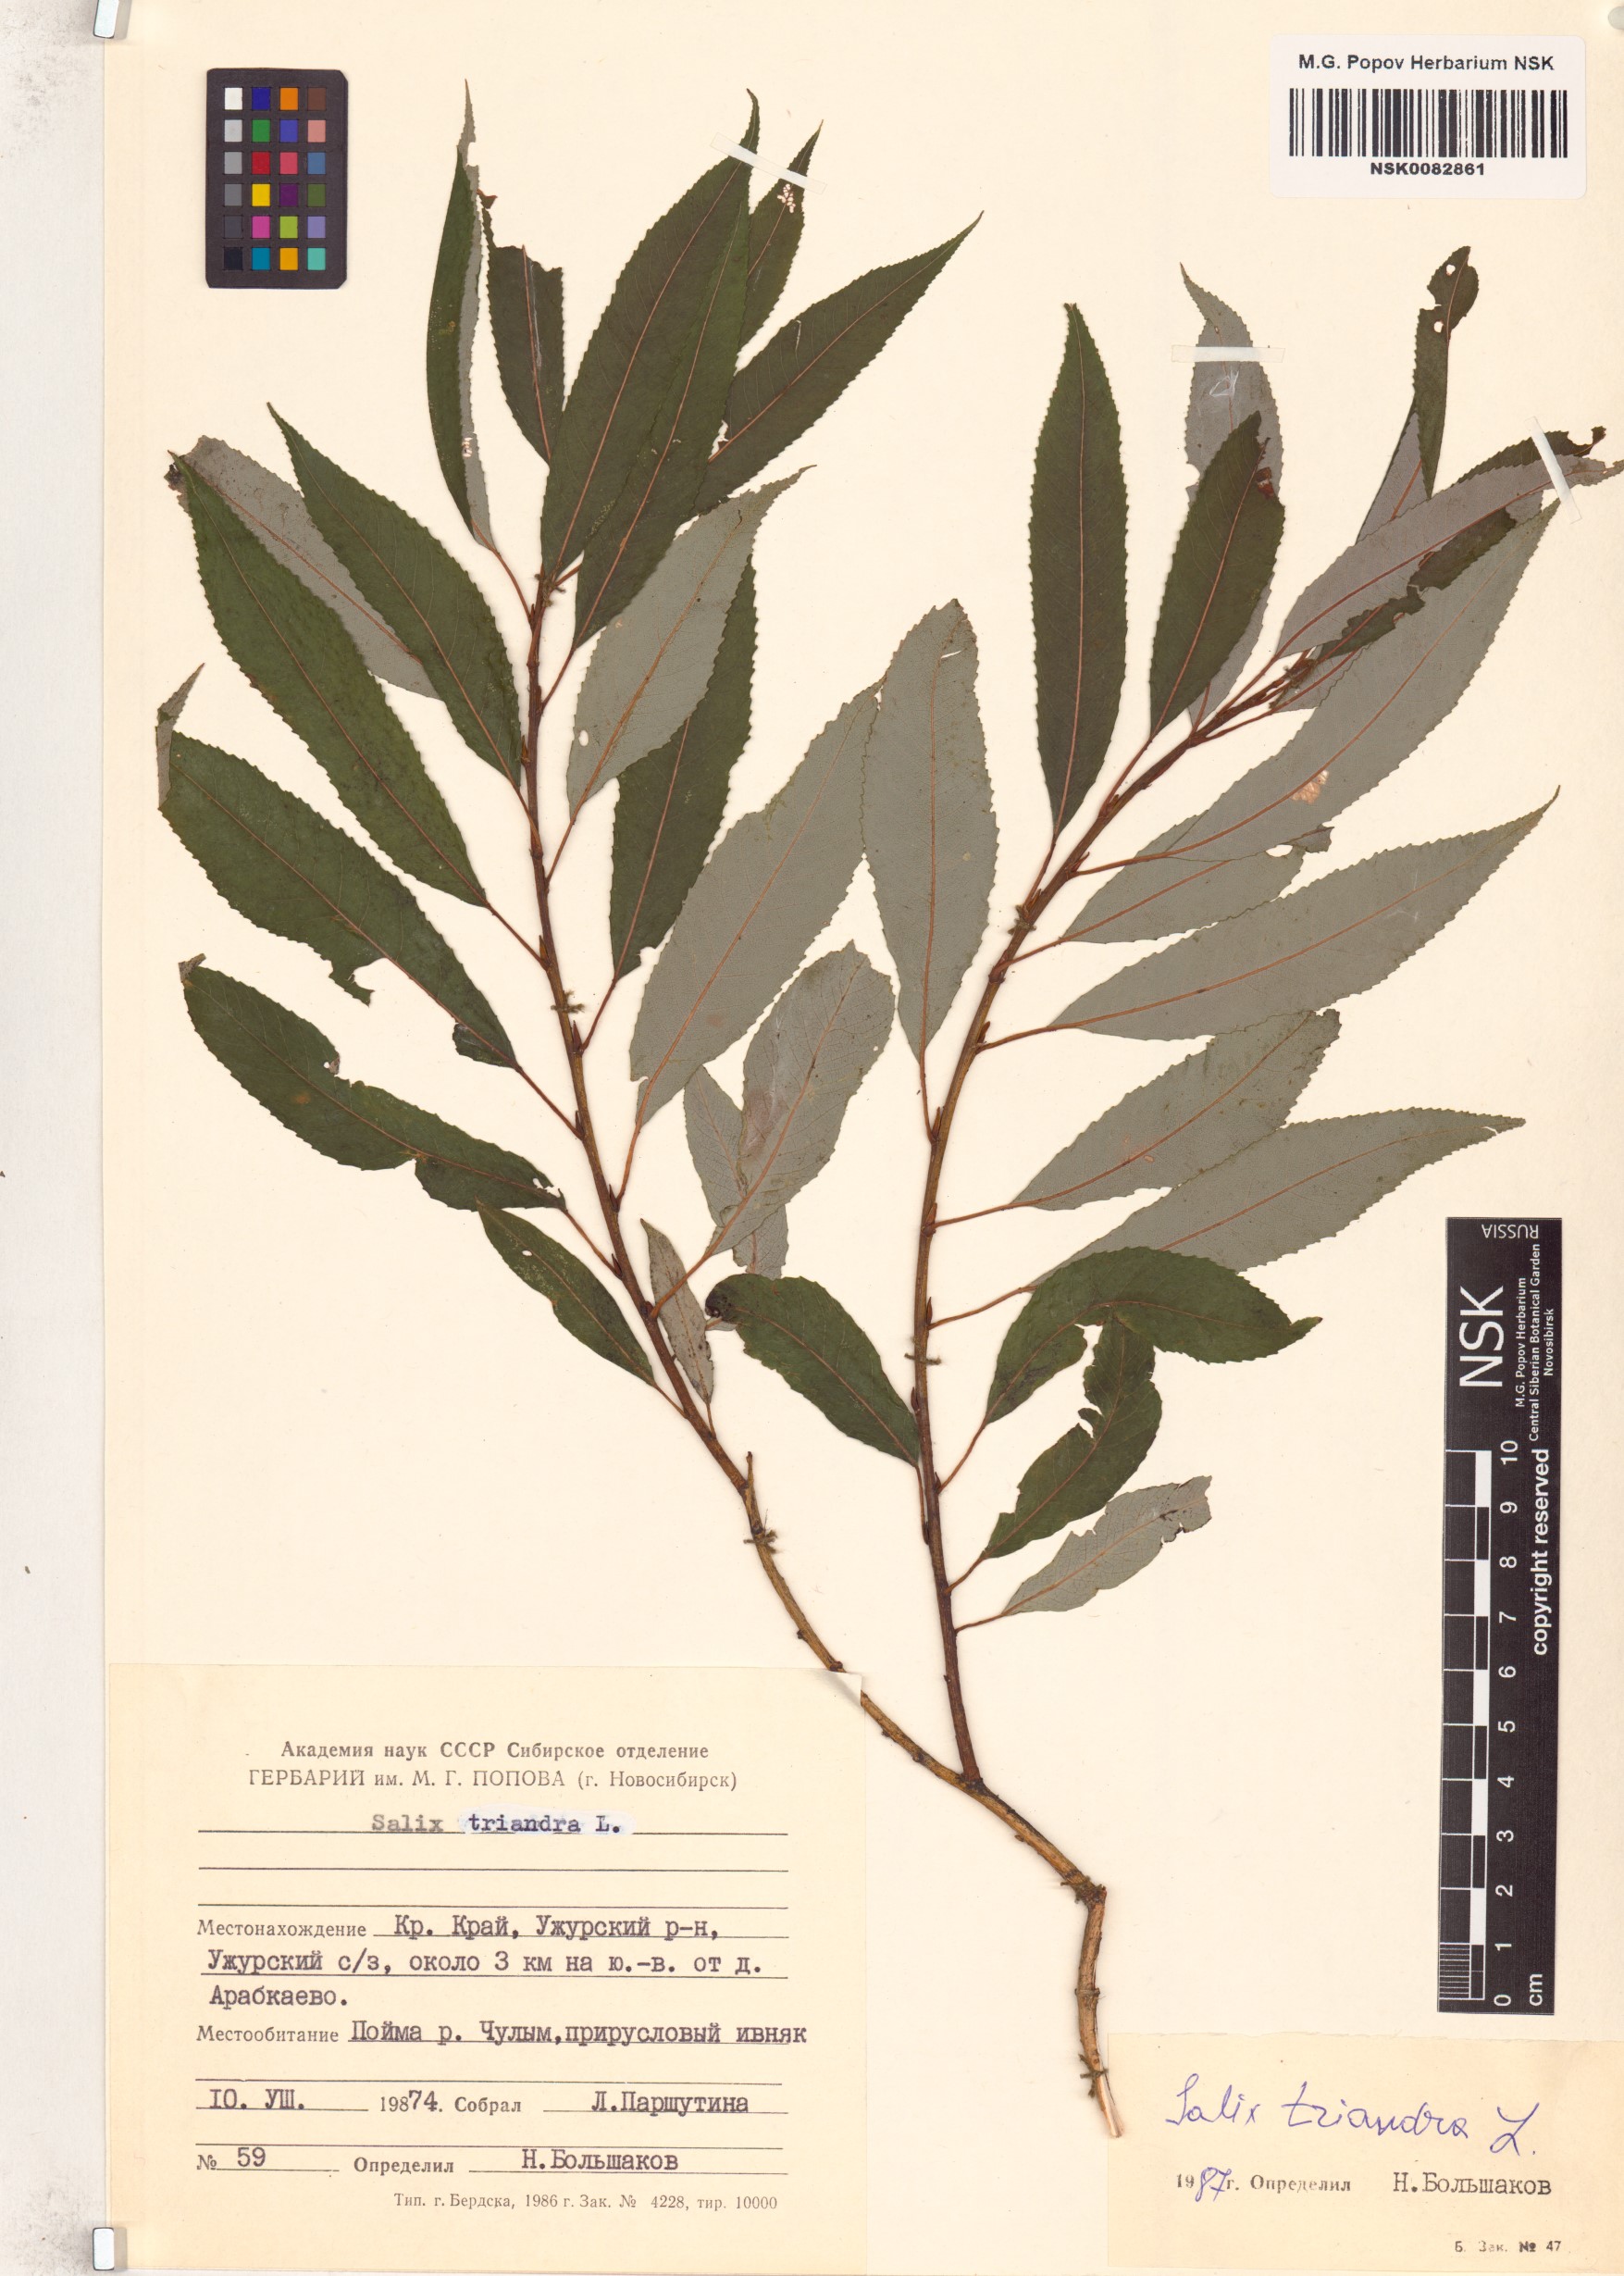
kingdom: Plantae
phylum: Tracheophyta
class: Magnoliopsida
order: Malpighiales
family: Salicaceae
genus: Salix
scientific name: Salix triandra
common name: Almond willow
